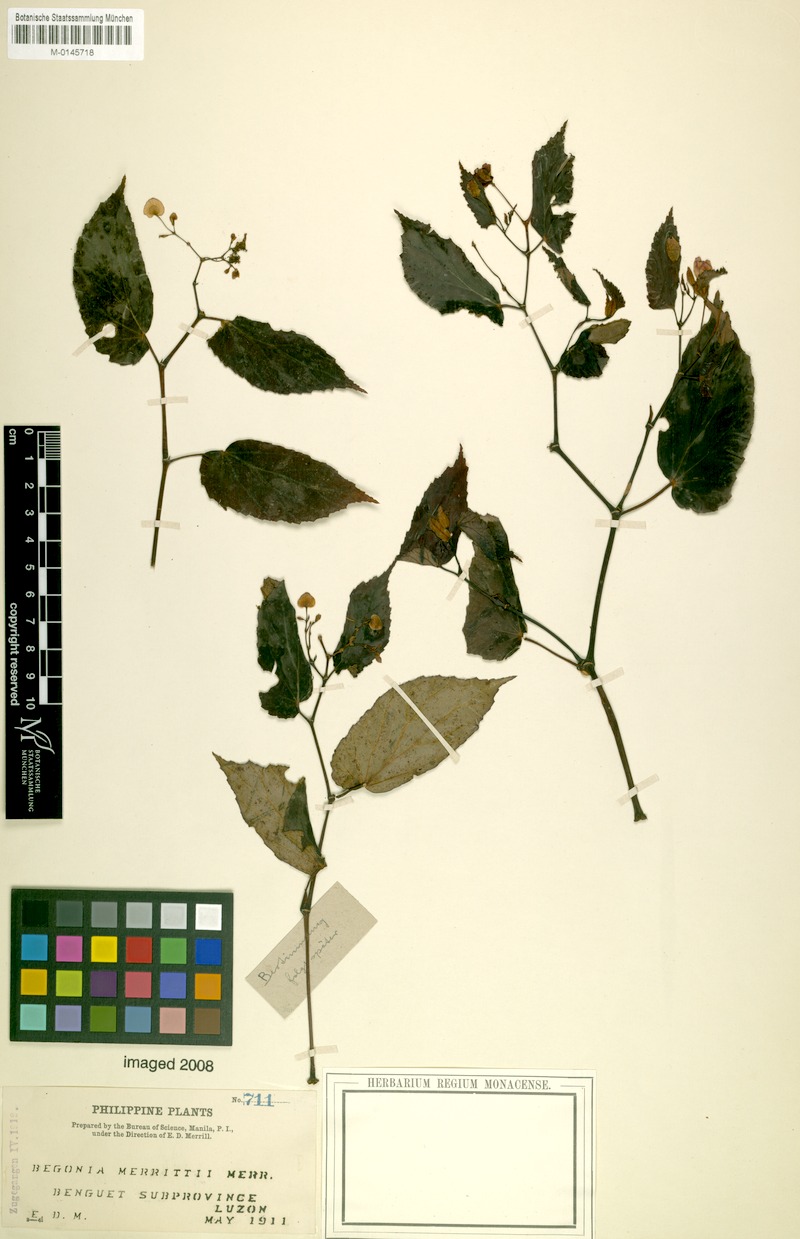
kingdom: Plantae
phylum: Tracheophyta
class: Magnoliopsida
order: Cucurbitales
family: Begoniaceae
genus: Begonia
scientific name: Begonia merrittii
